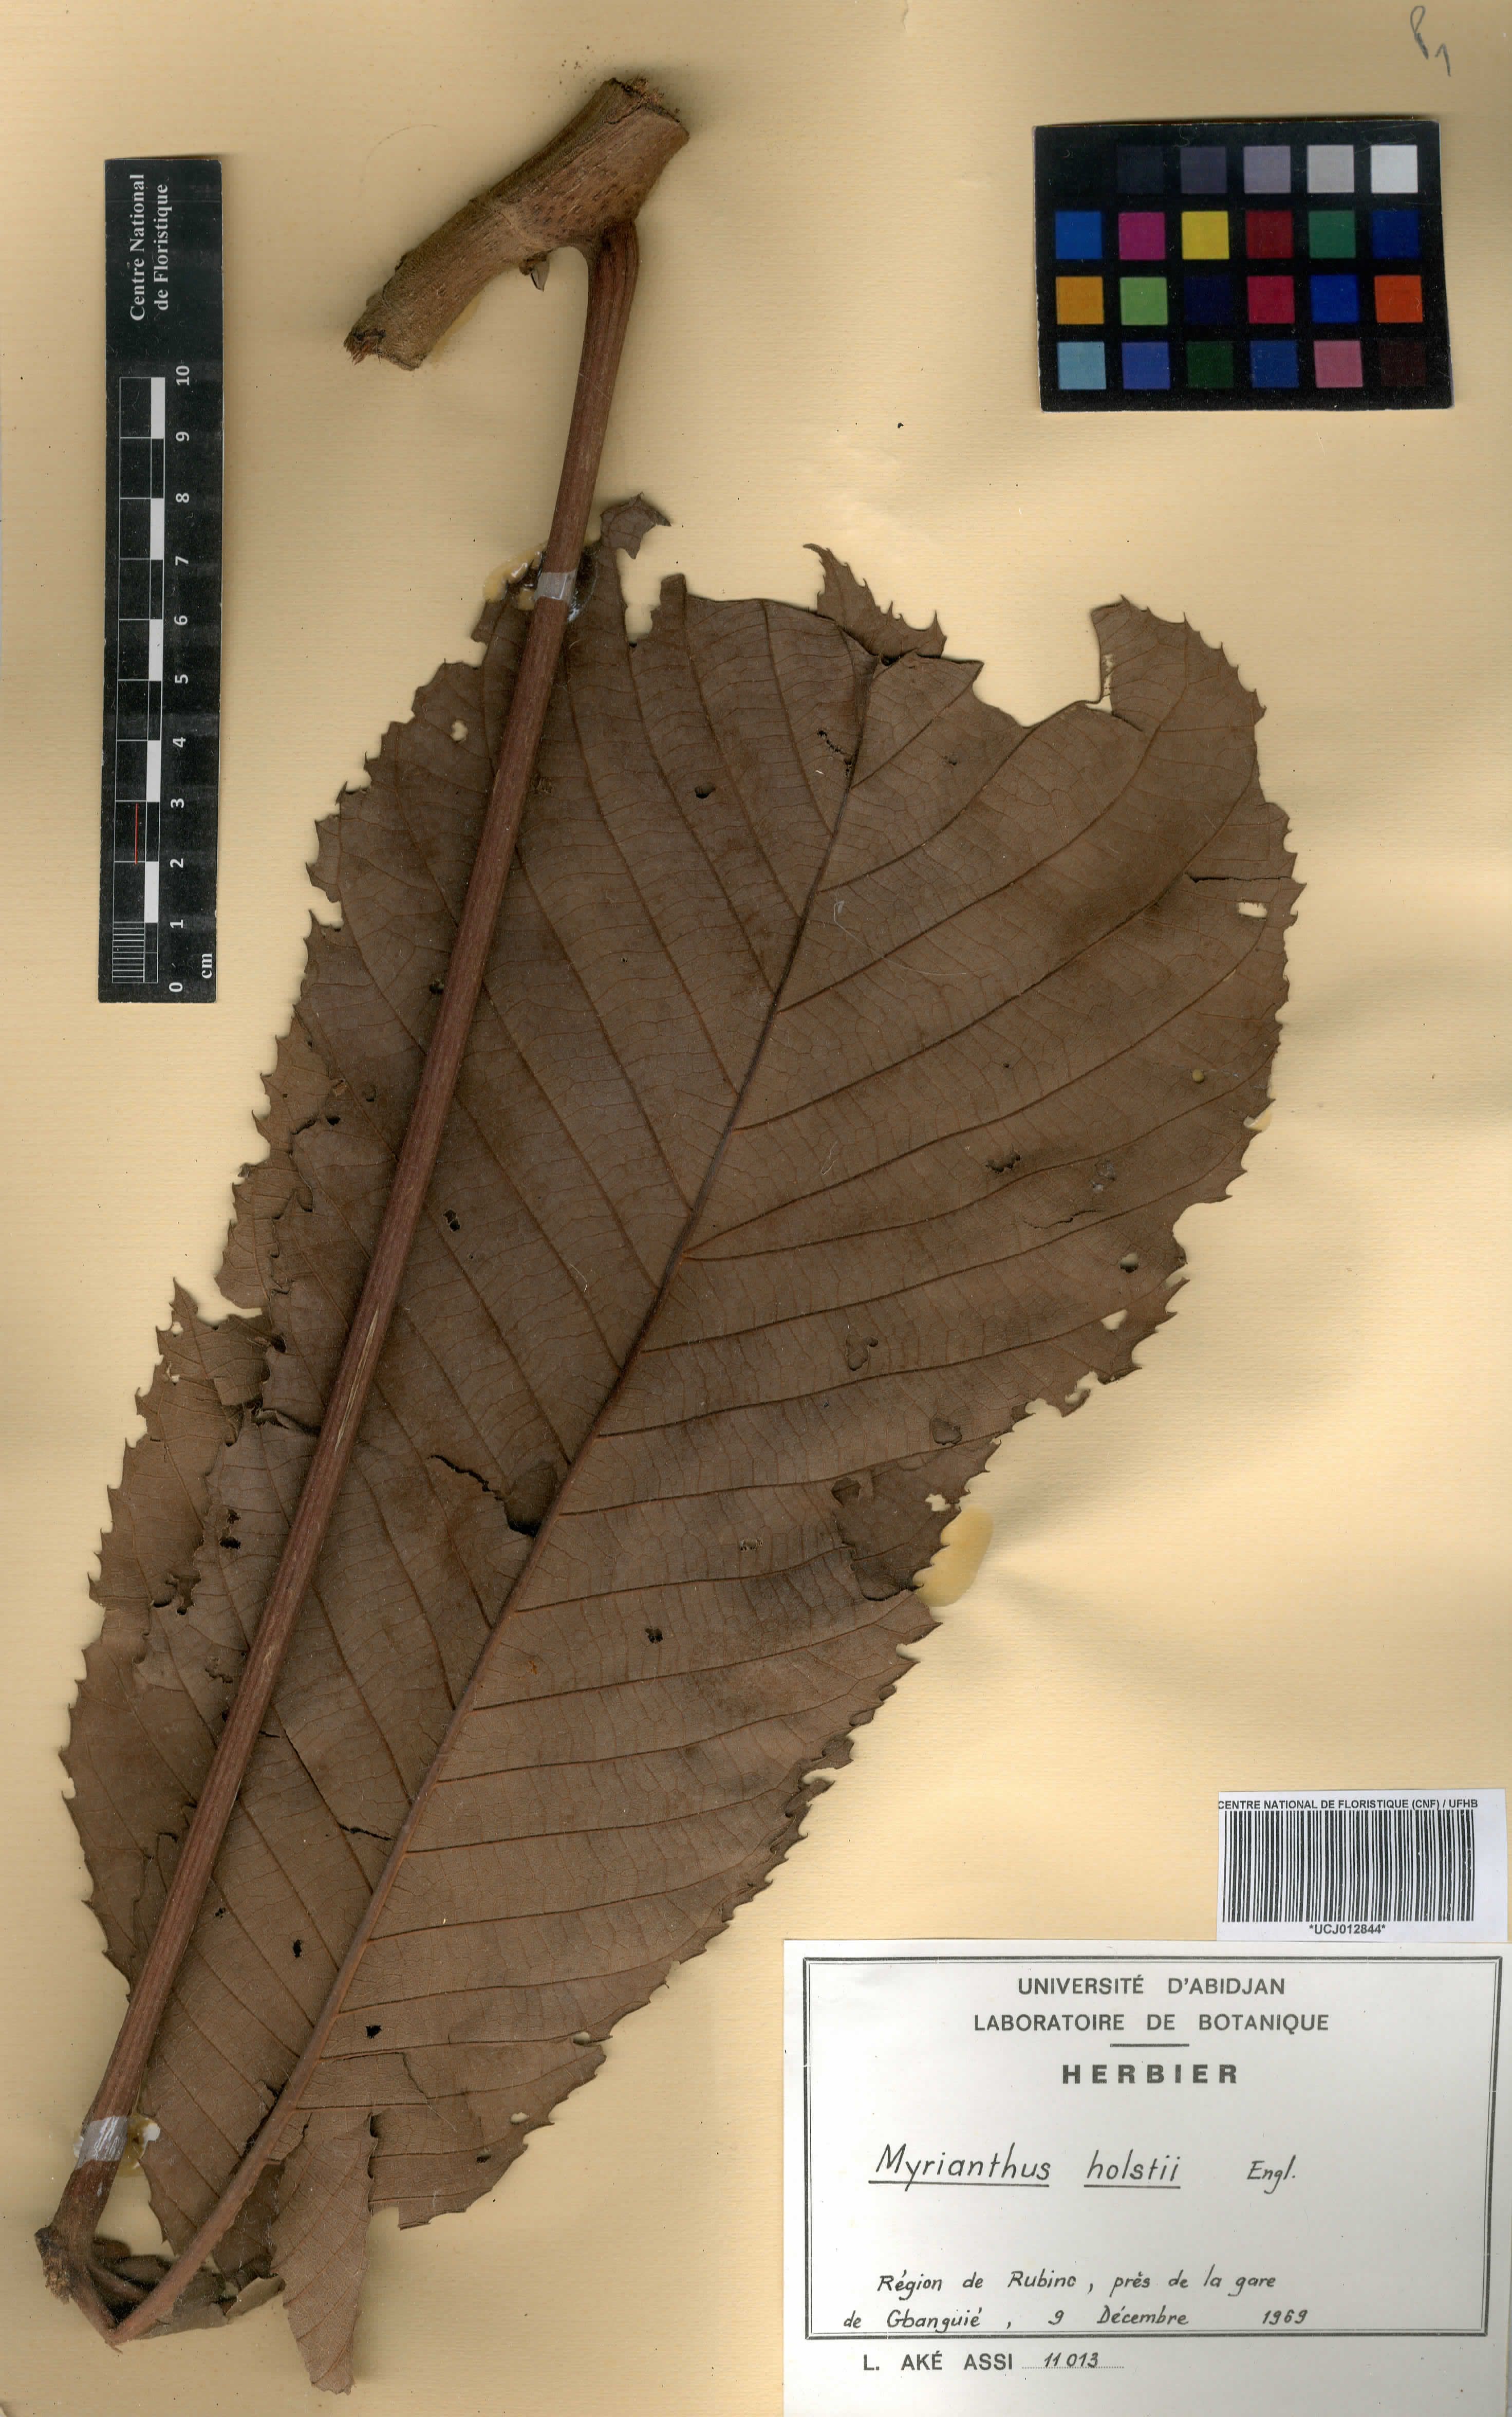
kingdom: Plantae
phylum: Tracheophyta
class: Magnoliopsida
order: Rosales
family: Urticaceae
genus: Myrianthus
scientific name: Myrianthus holstii
